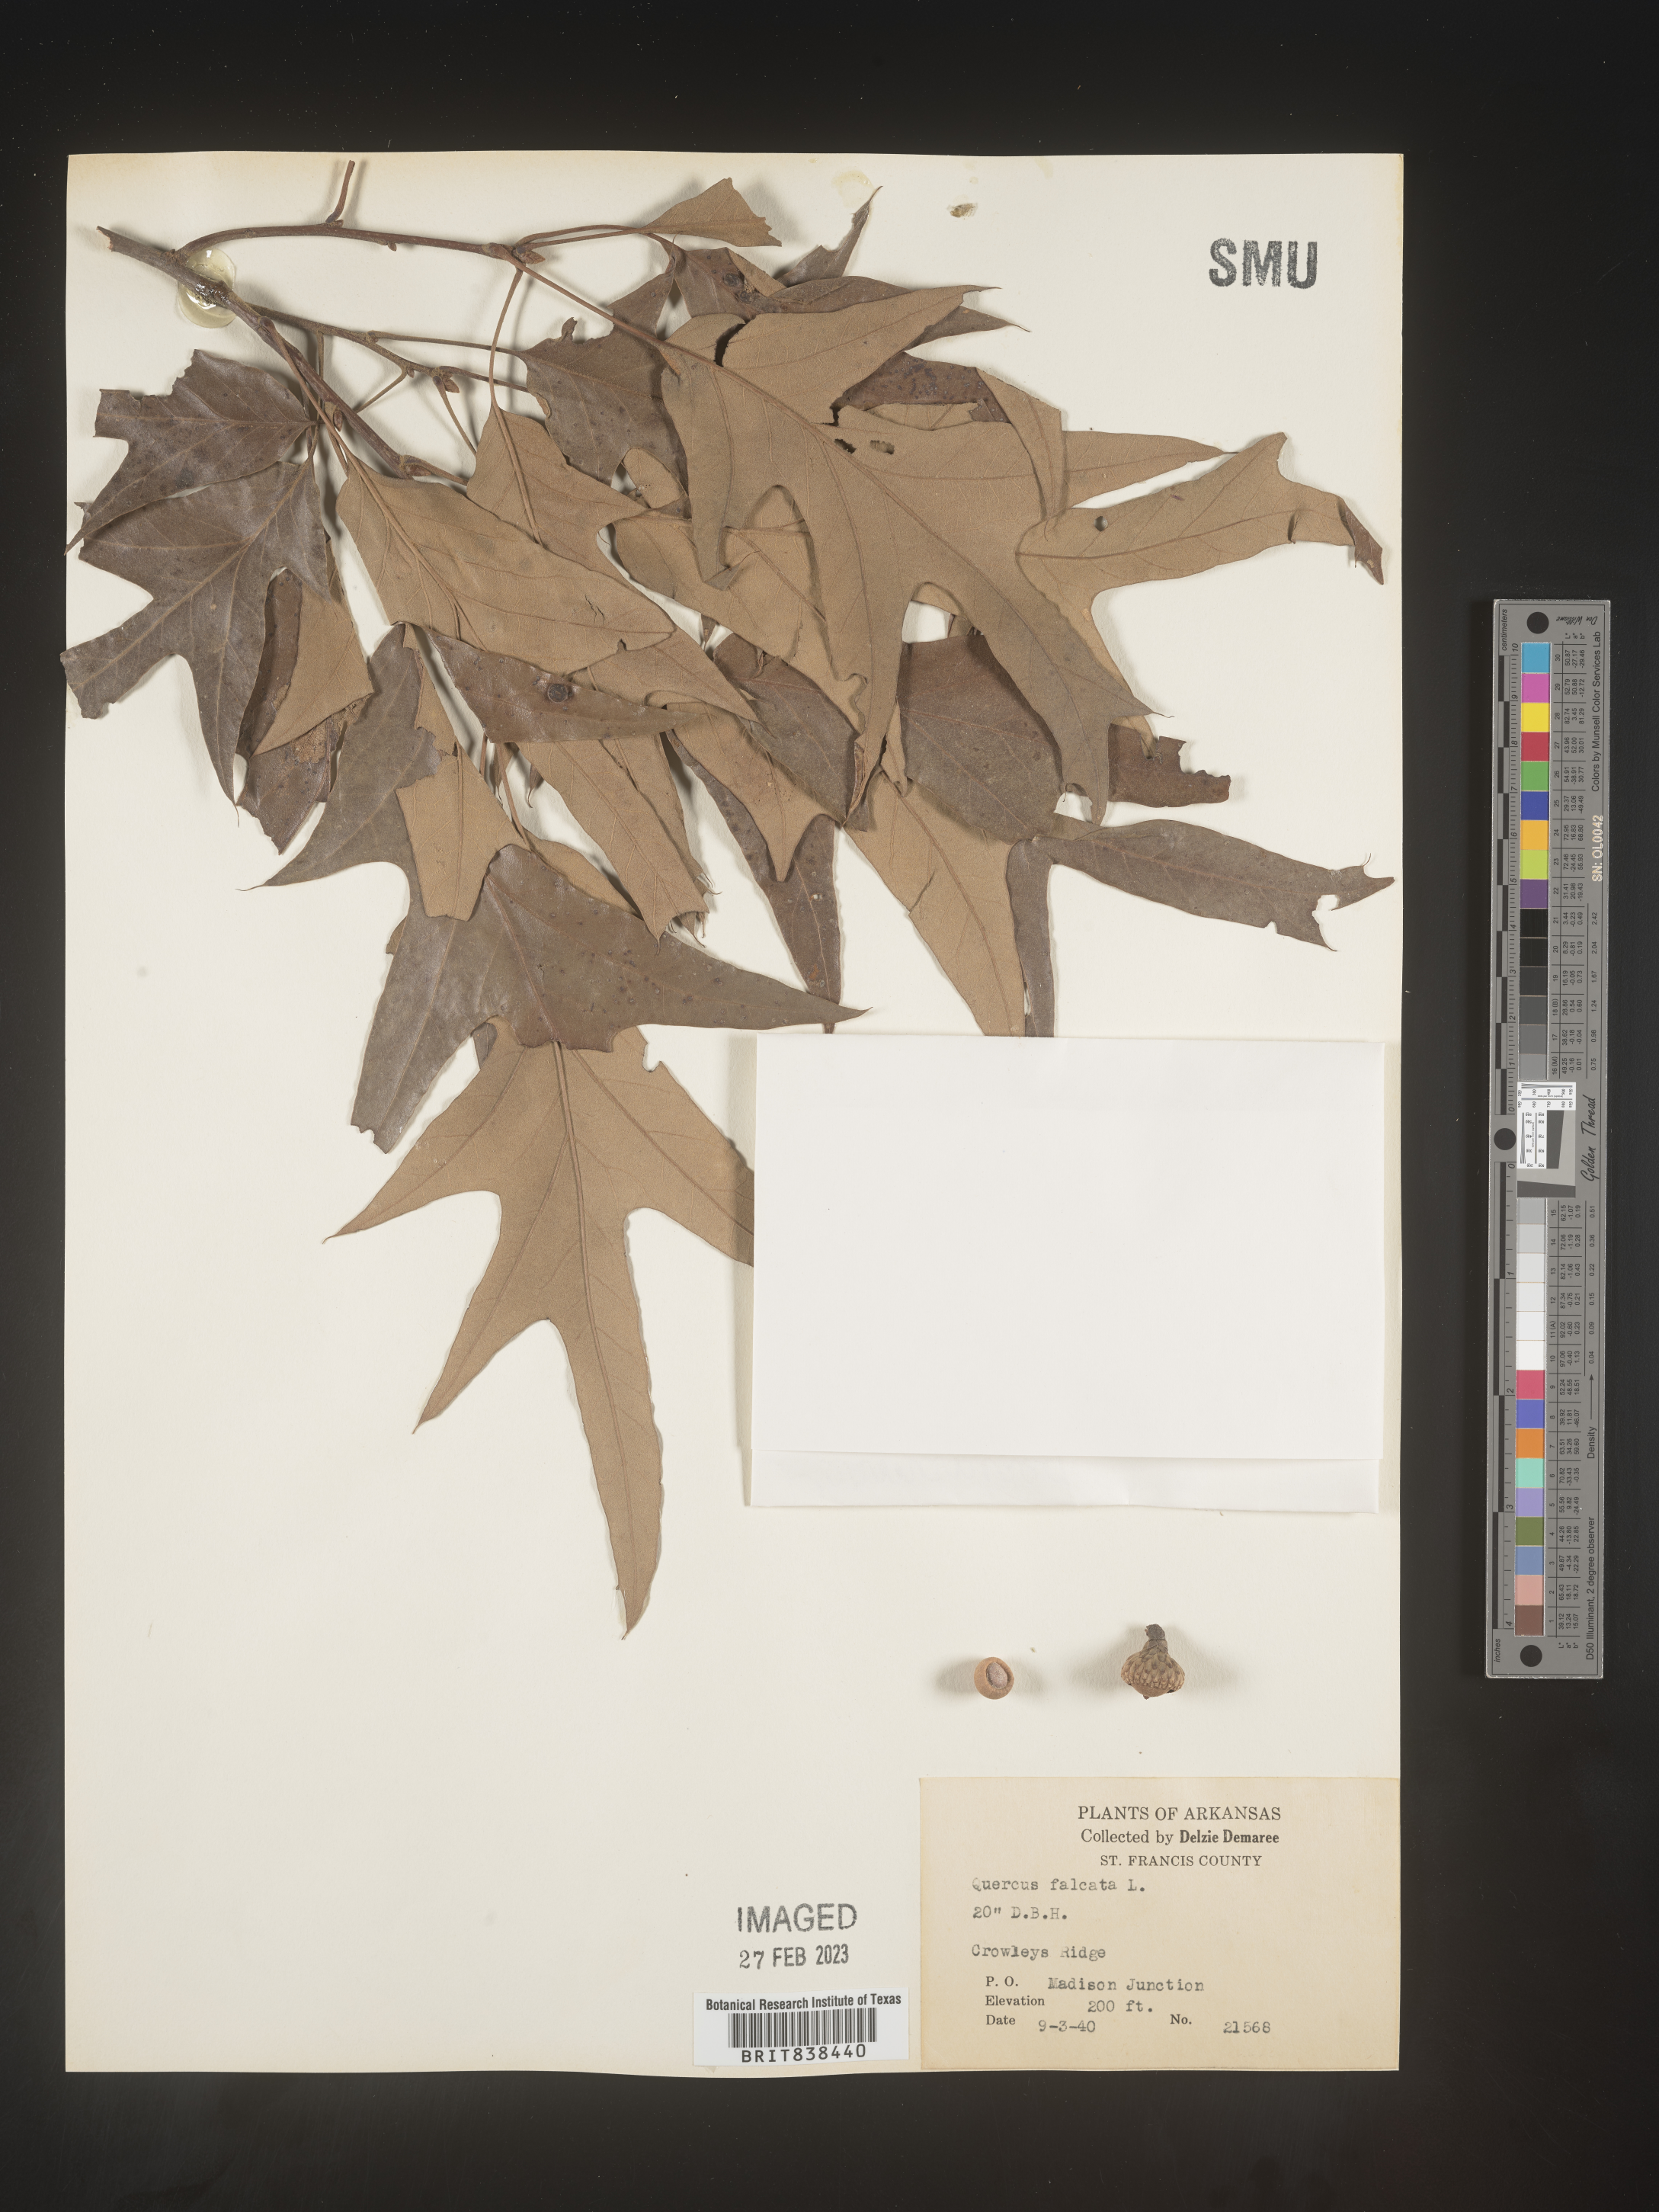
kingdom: Plantae
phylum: Tracheophyta
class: Magnoliopsida
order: Fagales
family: Fagaceae
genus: Quercus
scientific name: Quercus falcata
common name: Southern red oak
